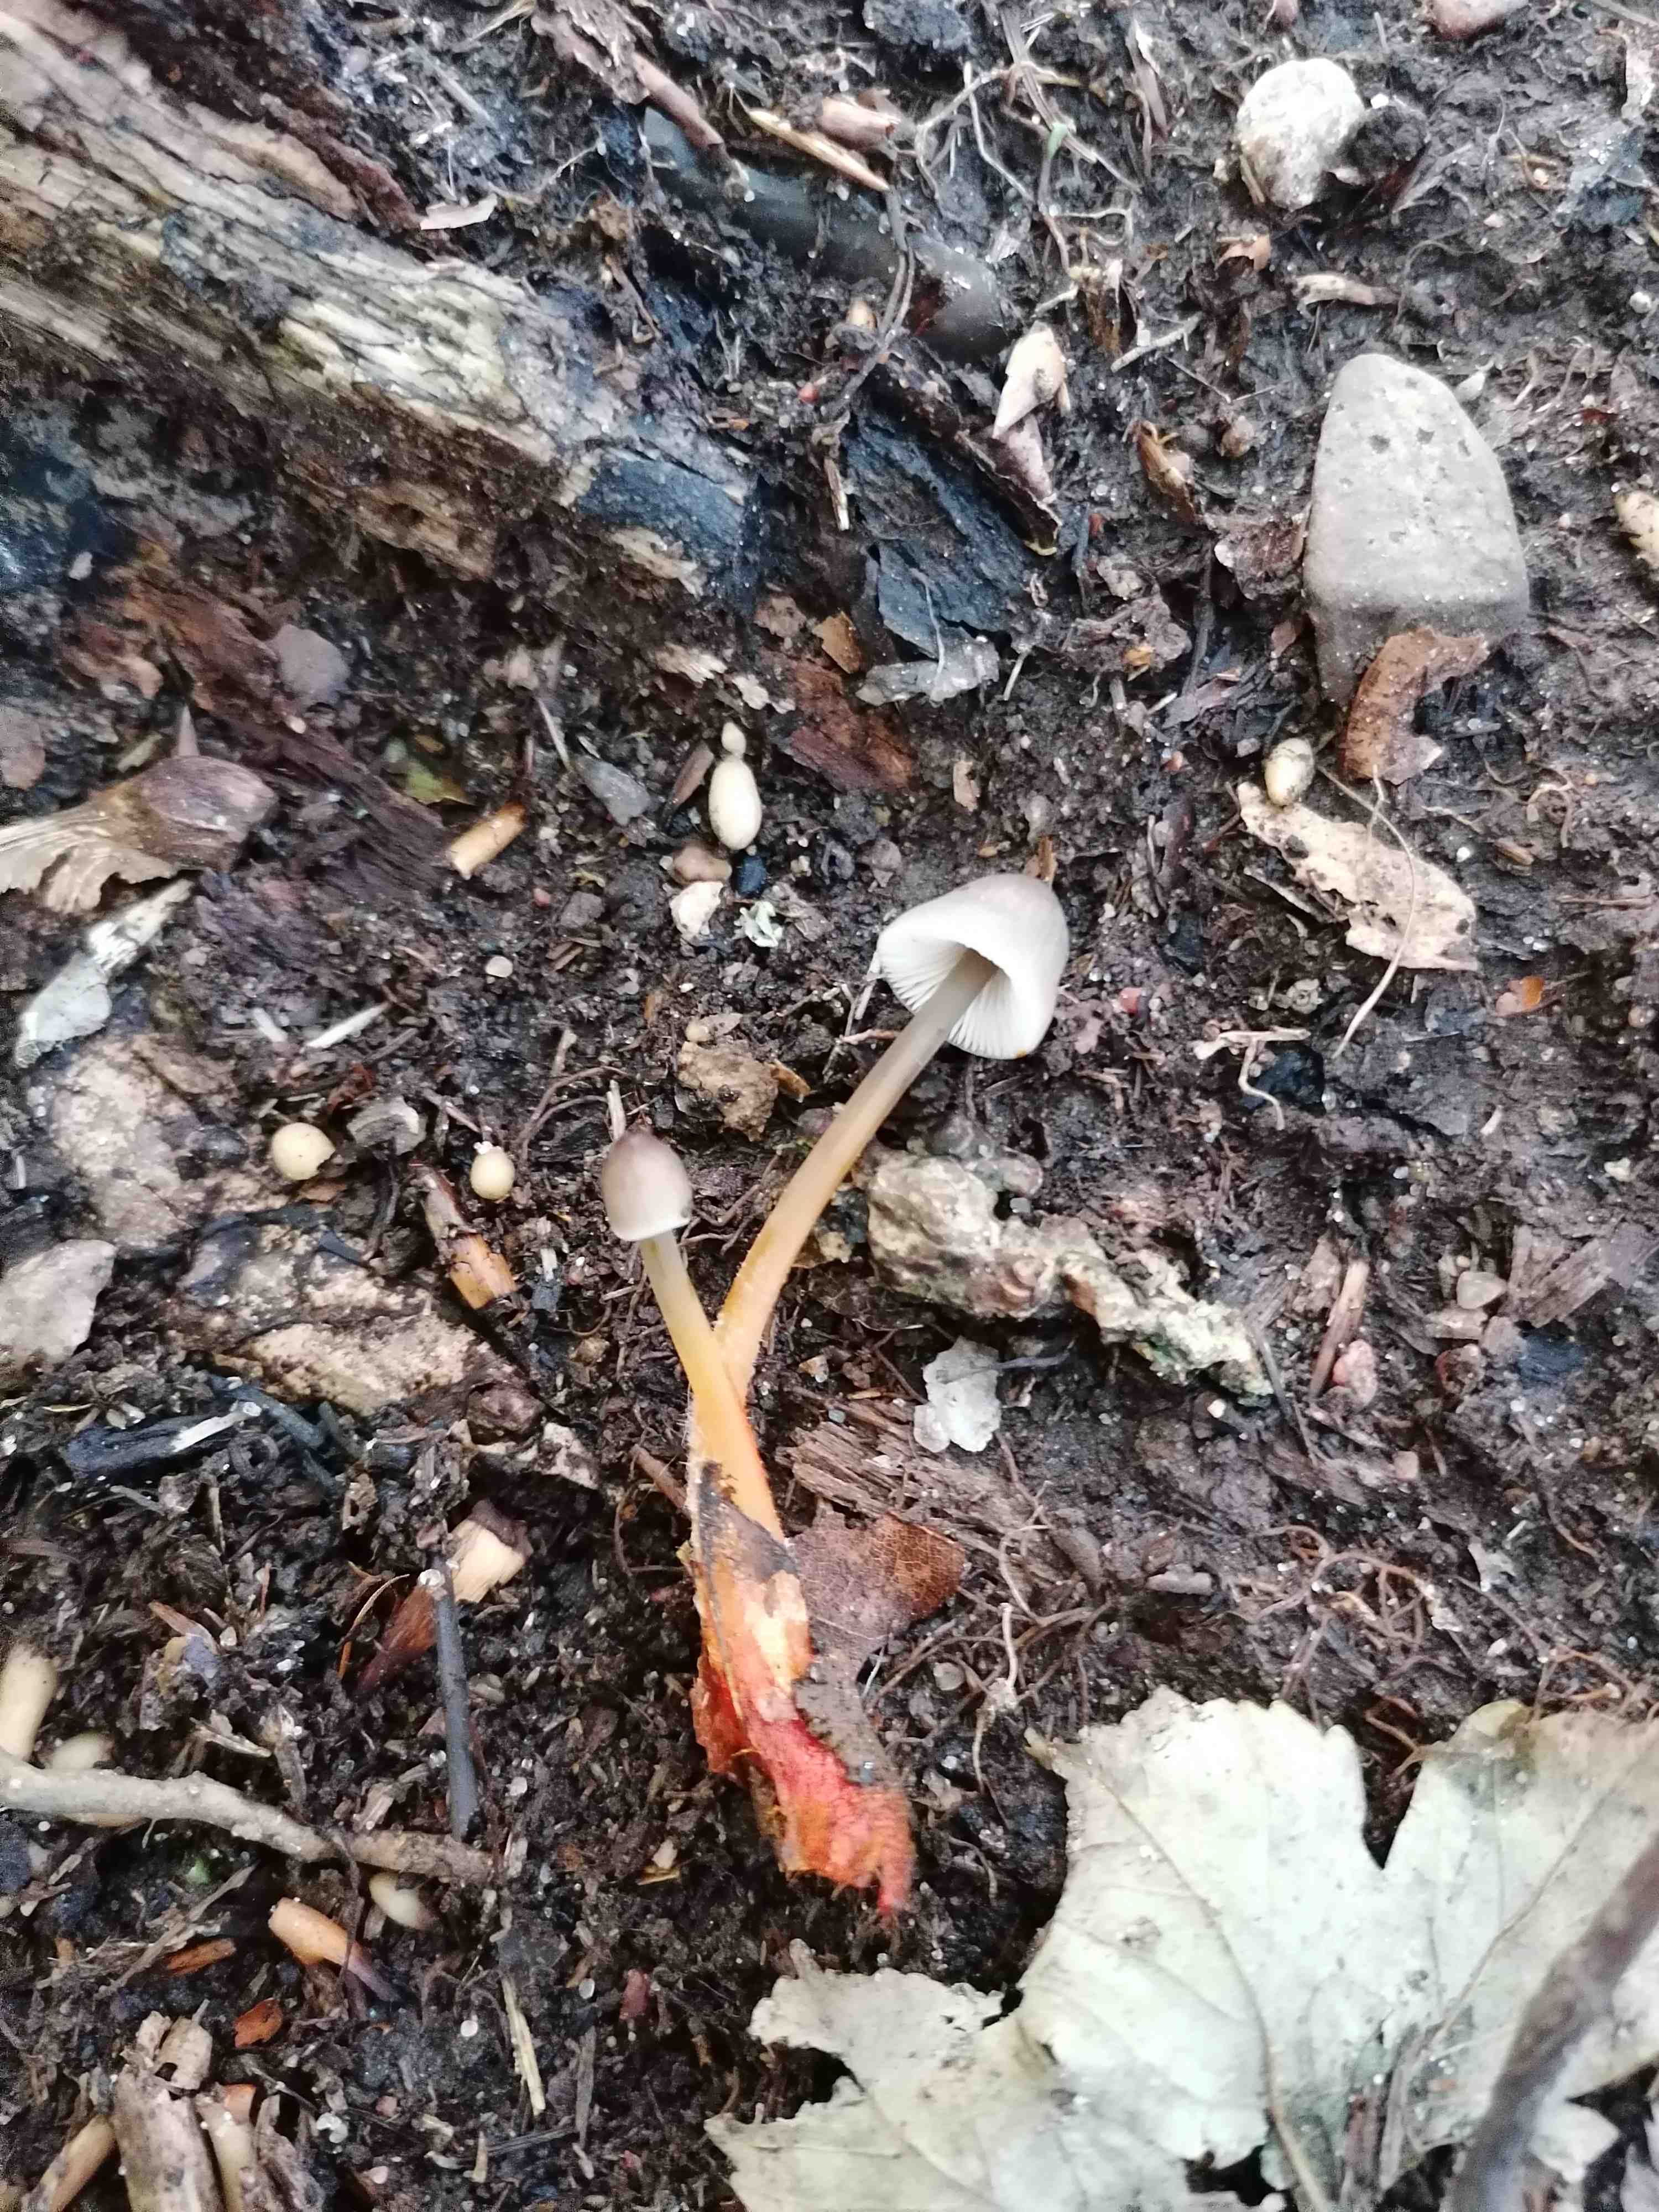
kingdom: Fungi
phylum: Basidiomycota
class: Agaricomycetes
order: Agaricales
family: Mycenaceae
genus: Mycena
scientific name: Mycena crocata
